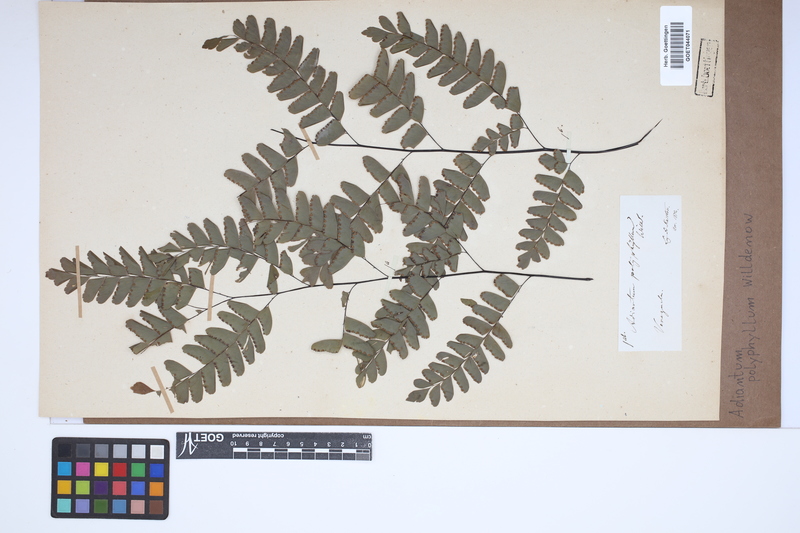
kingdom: Plantae
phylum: Tracheophyta
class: Polypodiopsida
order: Polypodiales
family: Pteridaceae
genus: Adiantum
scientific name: Adiantum polyphyllum
